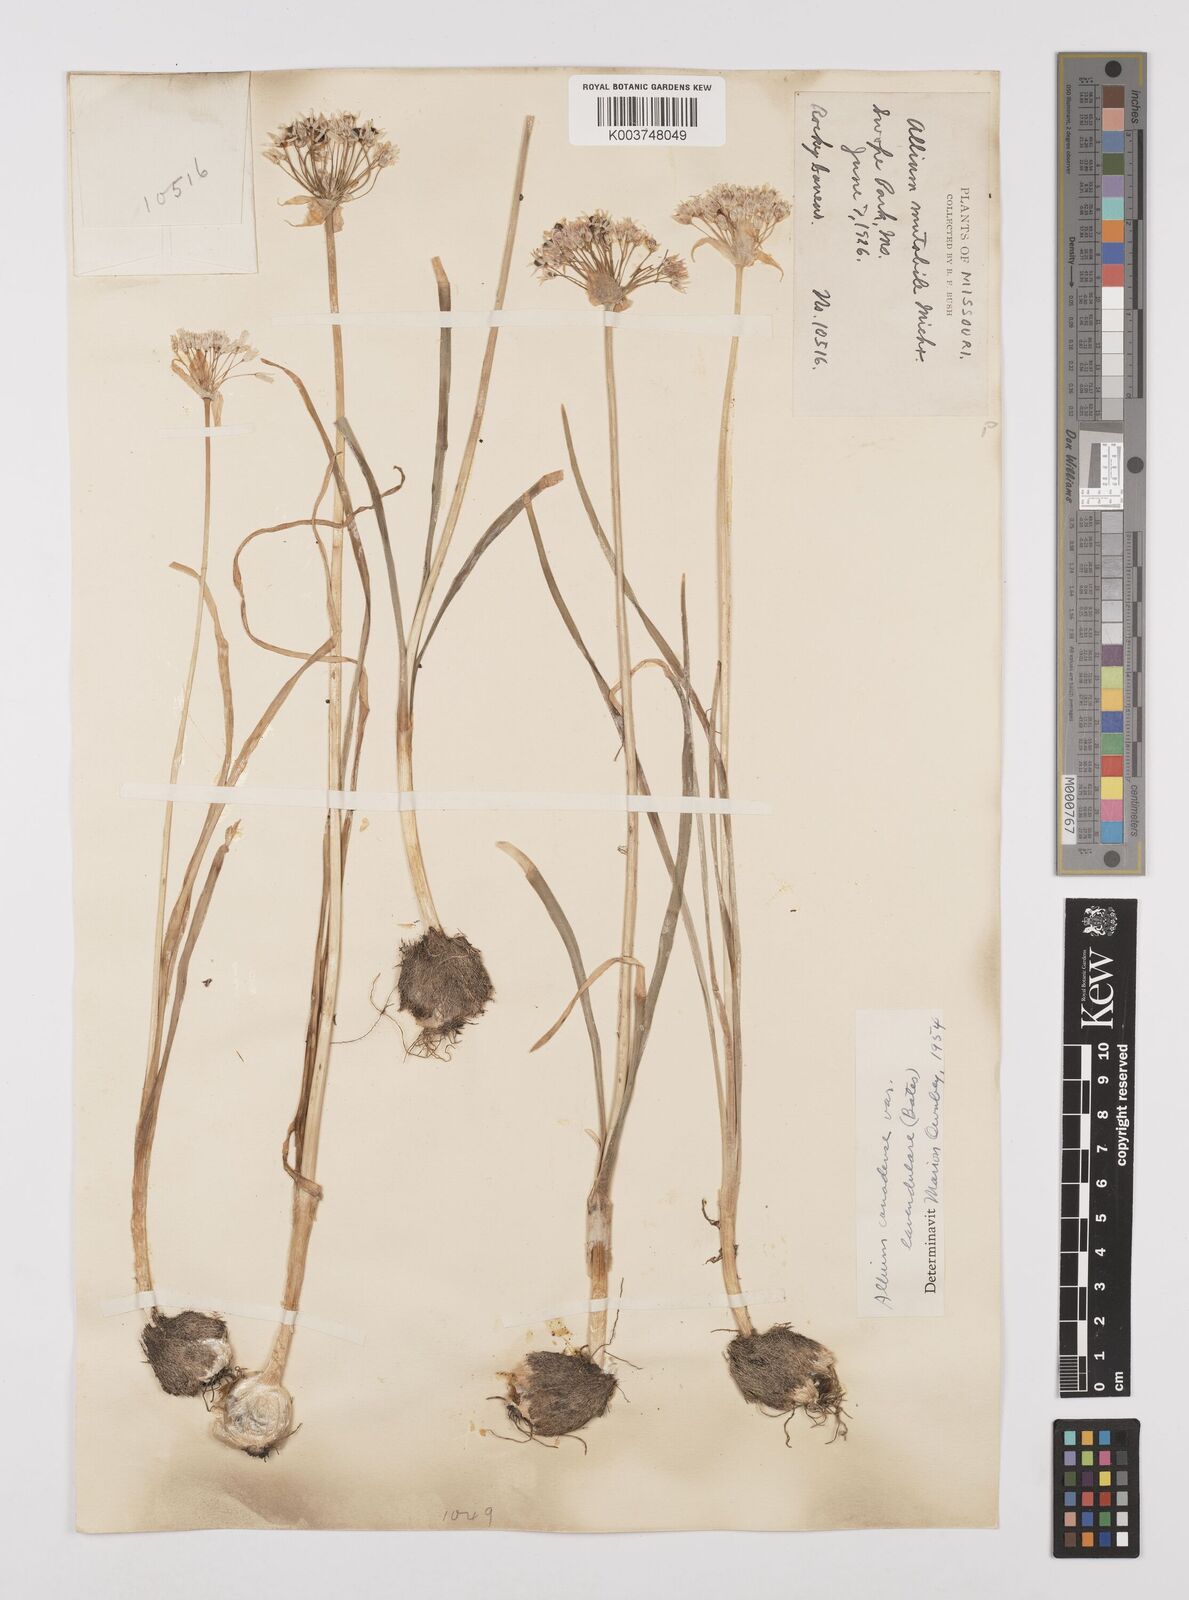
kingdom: Plantae
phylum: Tracheophyta
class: Liliopsida
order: Asparagales
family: Amaryllidaceae
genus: Allium
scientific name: Allium canadense
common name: Meadow garlic
